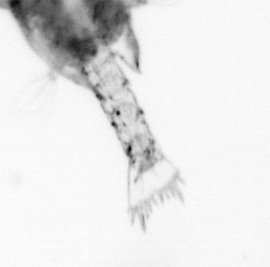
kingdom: Animalia
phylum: Arthropoda
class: Copepoda
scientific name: Copepoda
